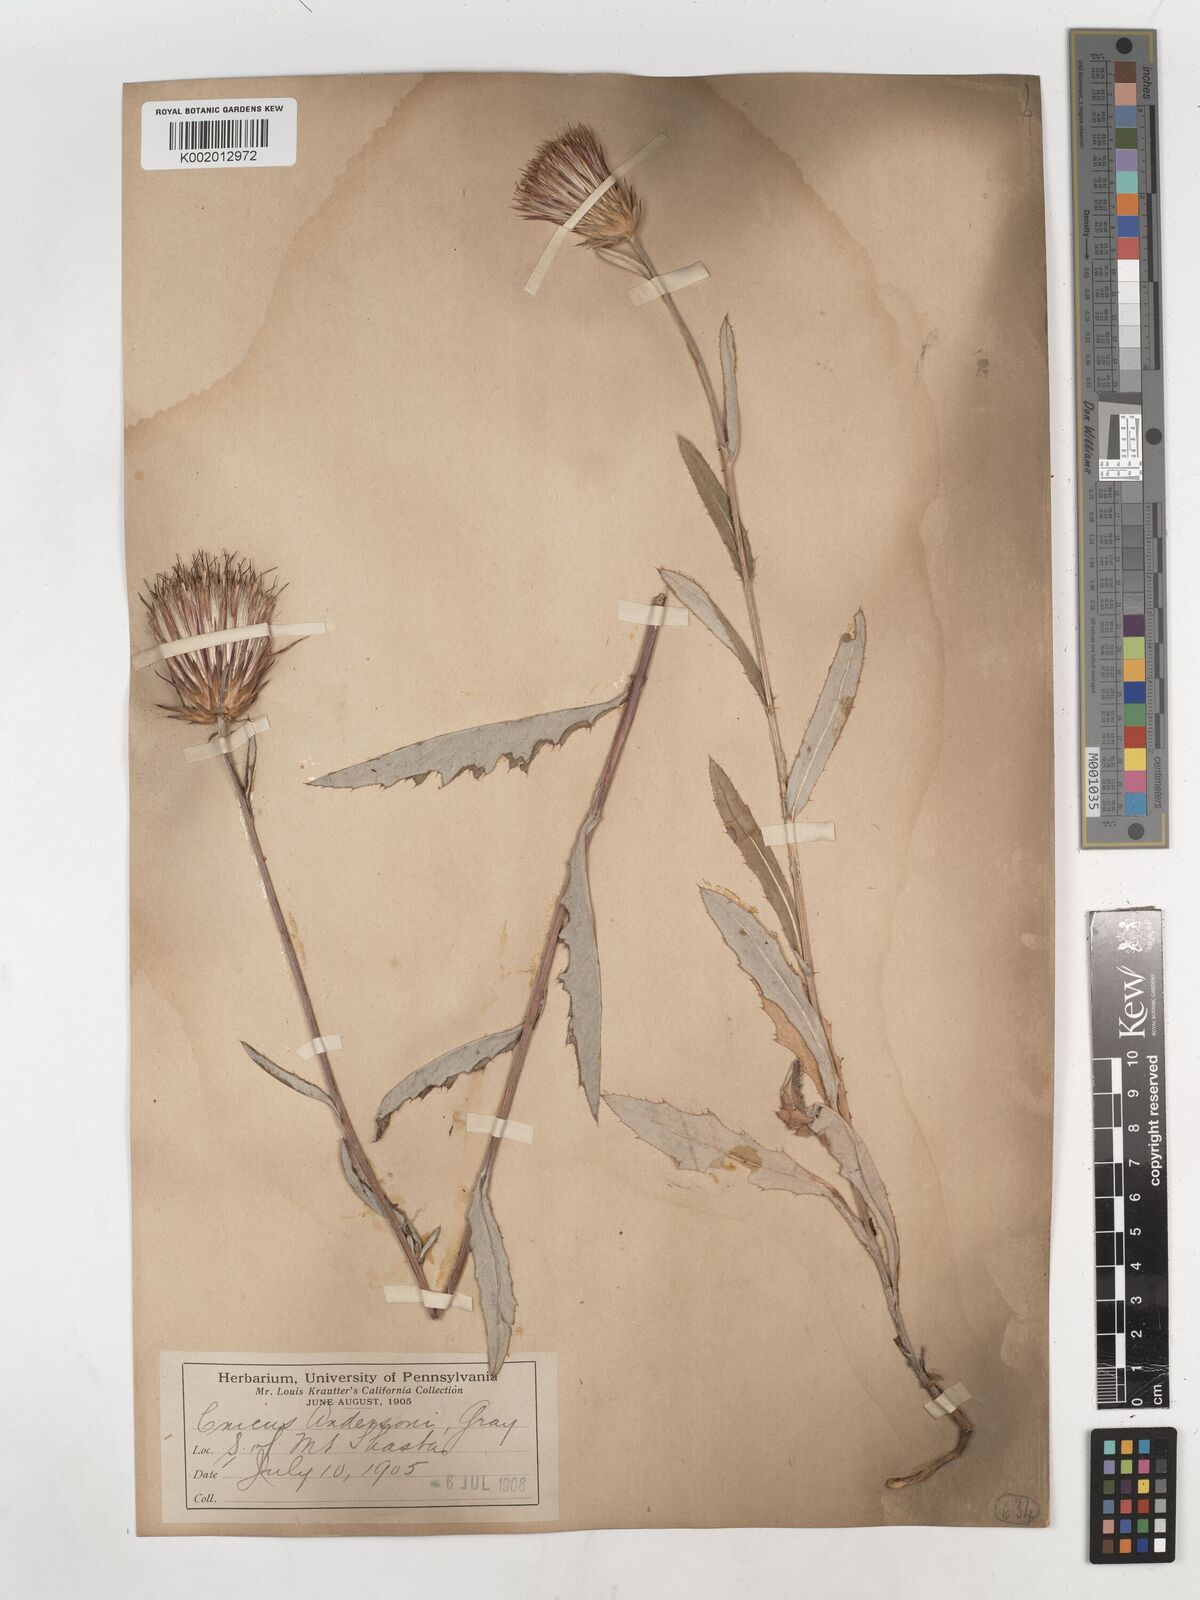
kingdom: Plantae
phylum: Tracheophyta
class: Magnoliopsida
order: Asterales
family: Asteraceae
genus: Cirsium
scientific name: Cirsium
